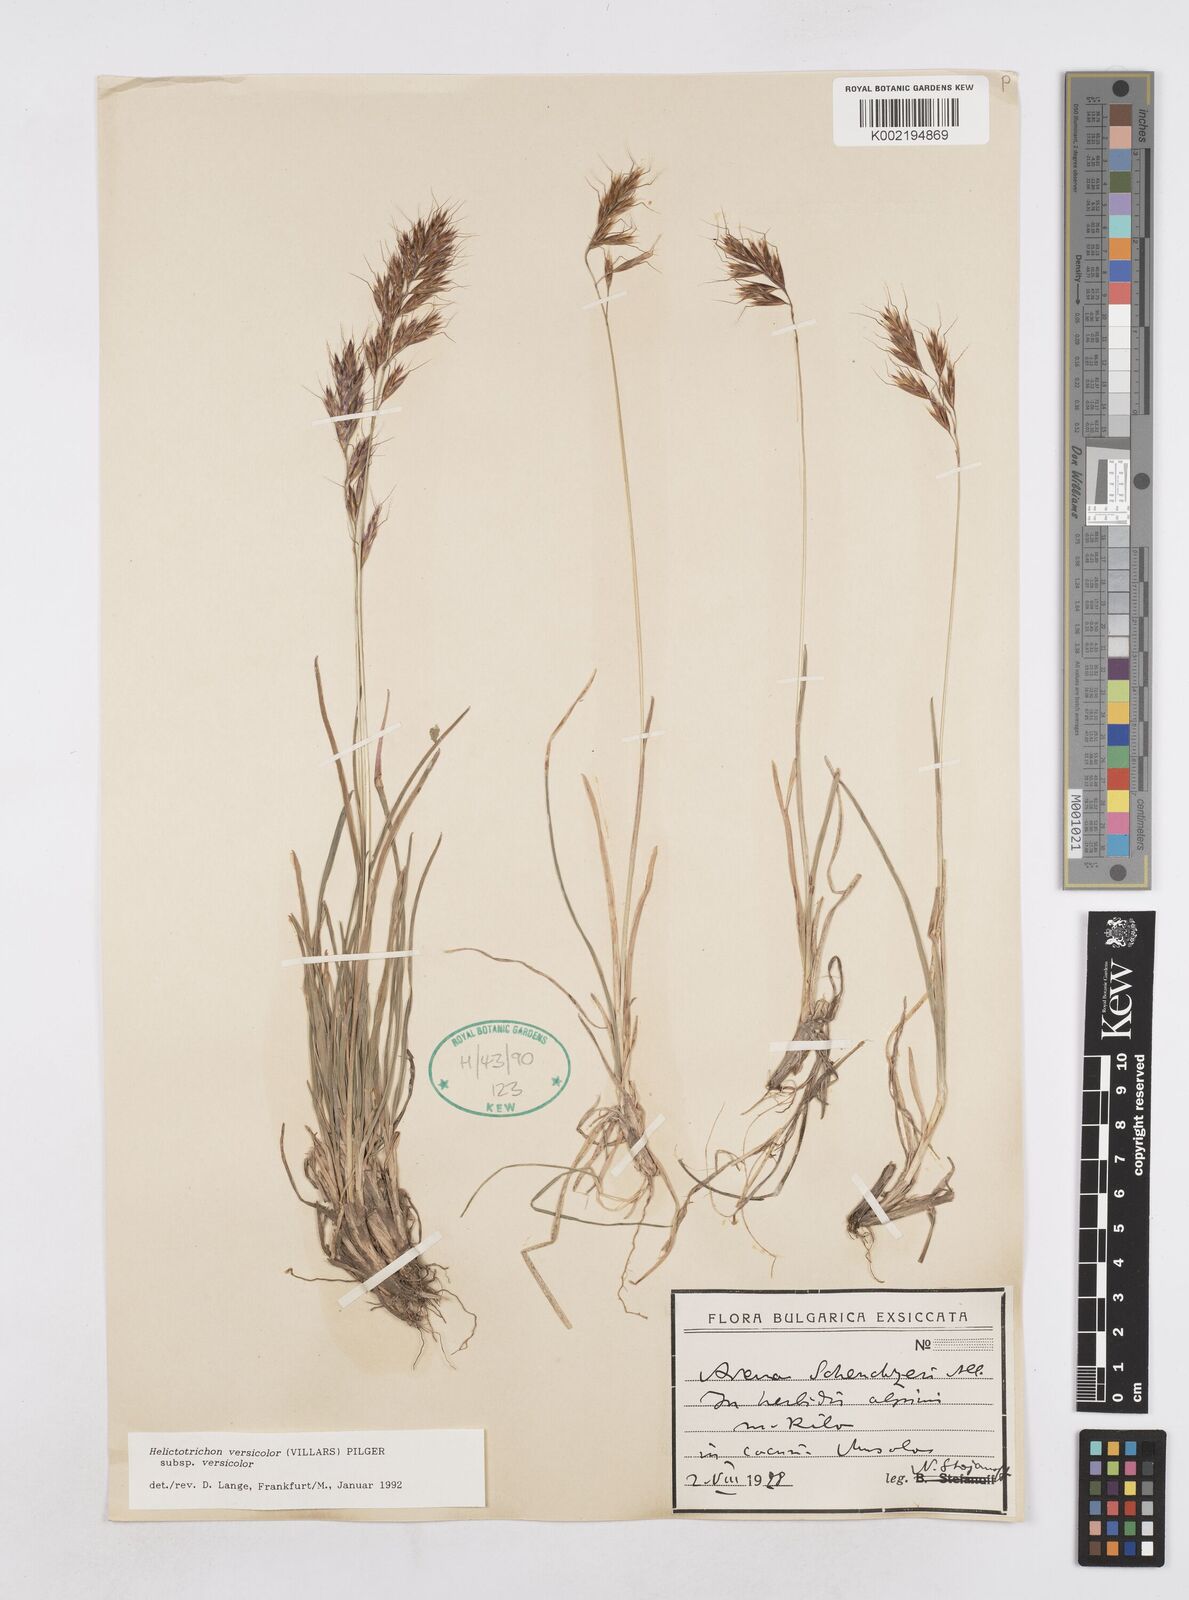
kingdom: Plantae
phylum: Tracheophyta
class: Liliopsida
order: Poales
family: Poaceae
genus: Helictochloa
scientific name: Helictochloa versicolor
